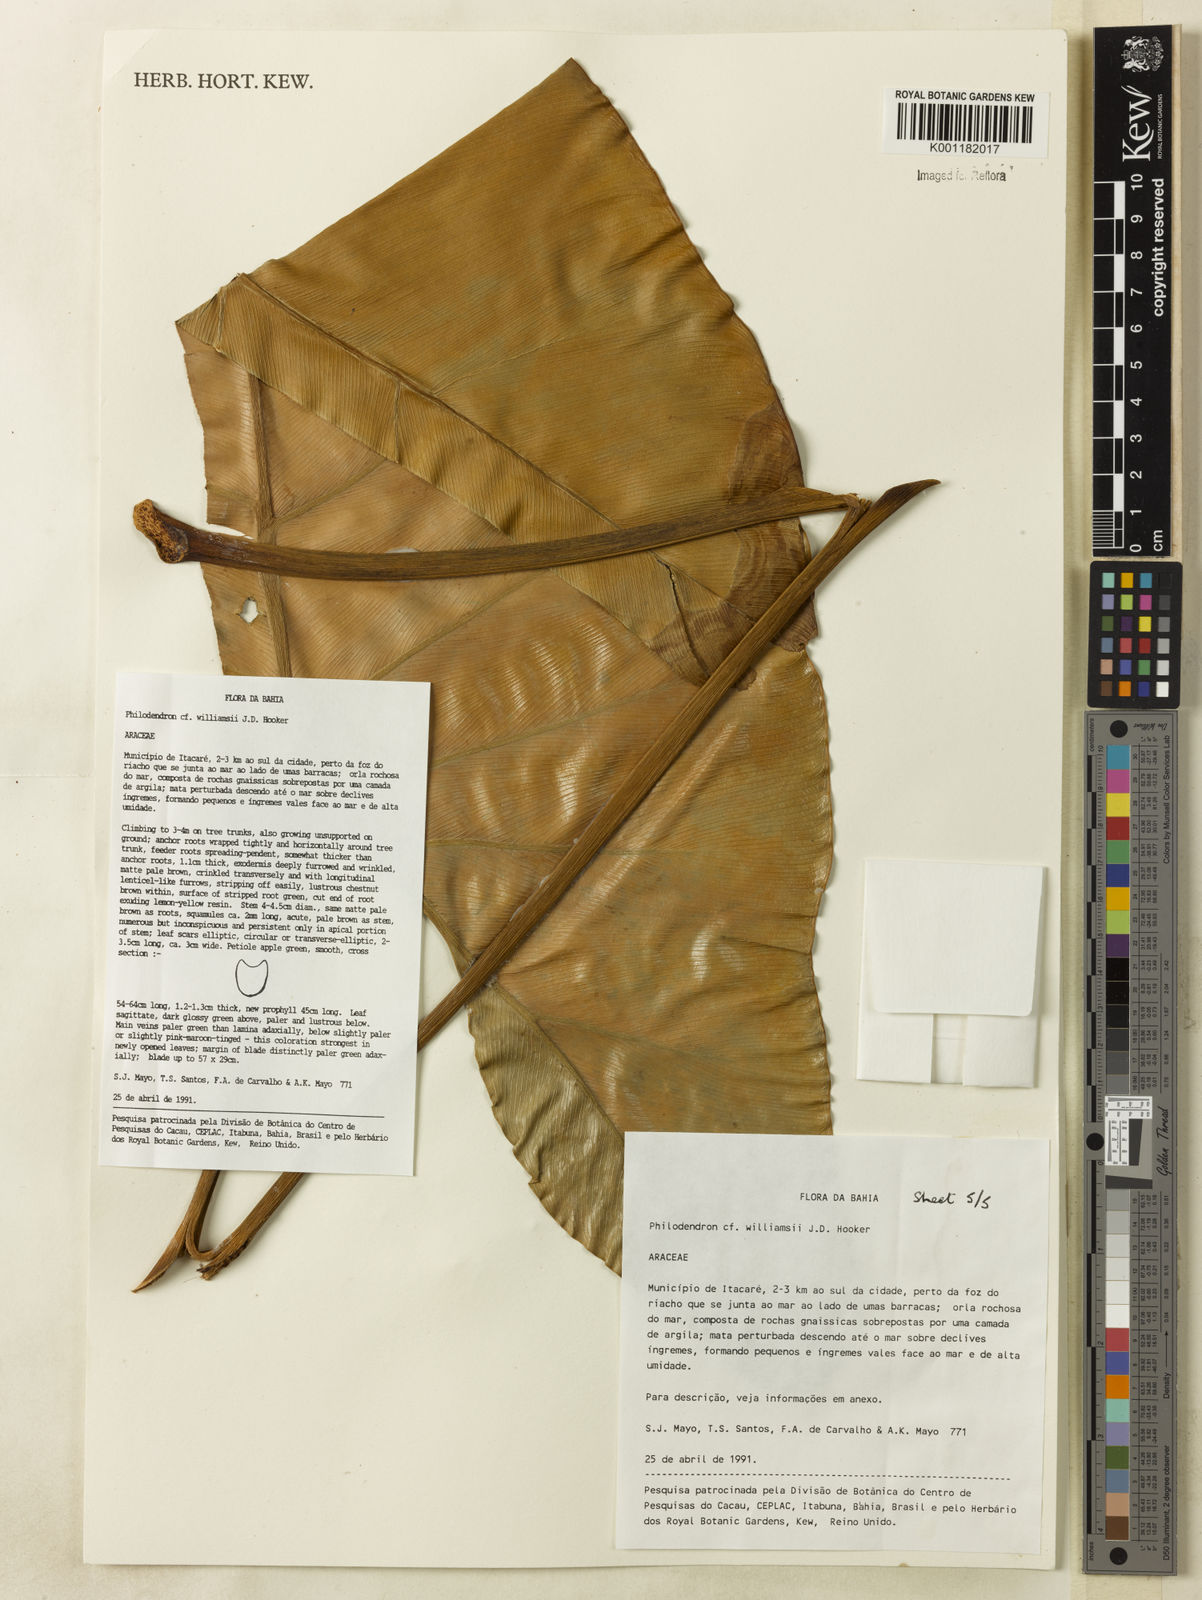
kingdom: Plantae
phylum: Tracheophyta
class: Liliopsida
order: Alismatales
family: Araceae
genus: Thaumatophyllum
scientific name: Thaumatophyllum williamsii
